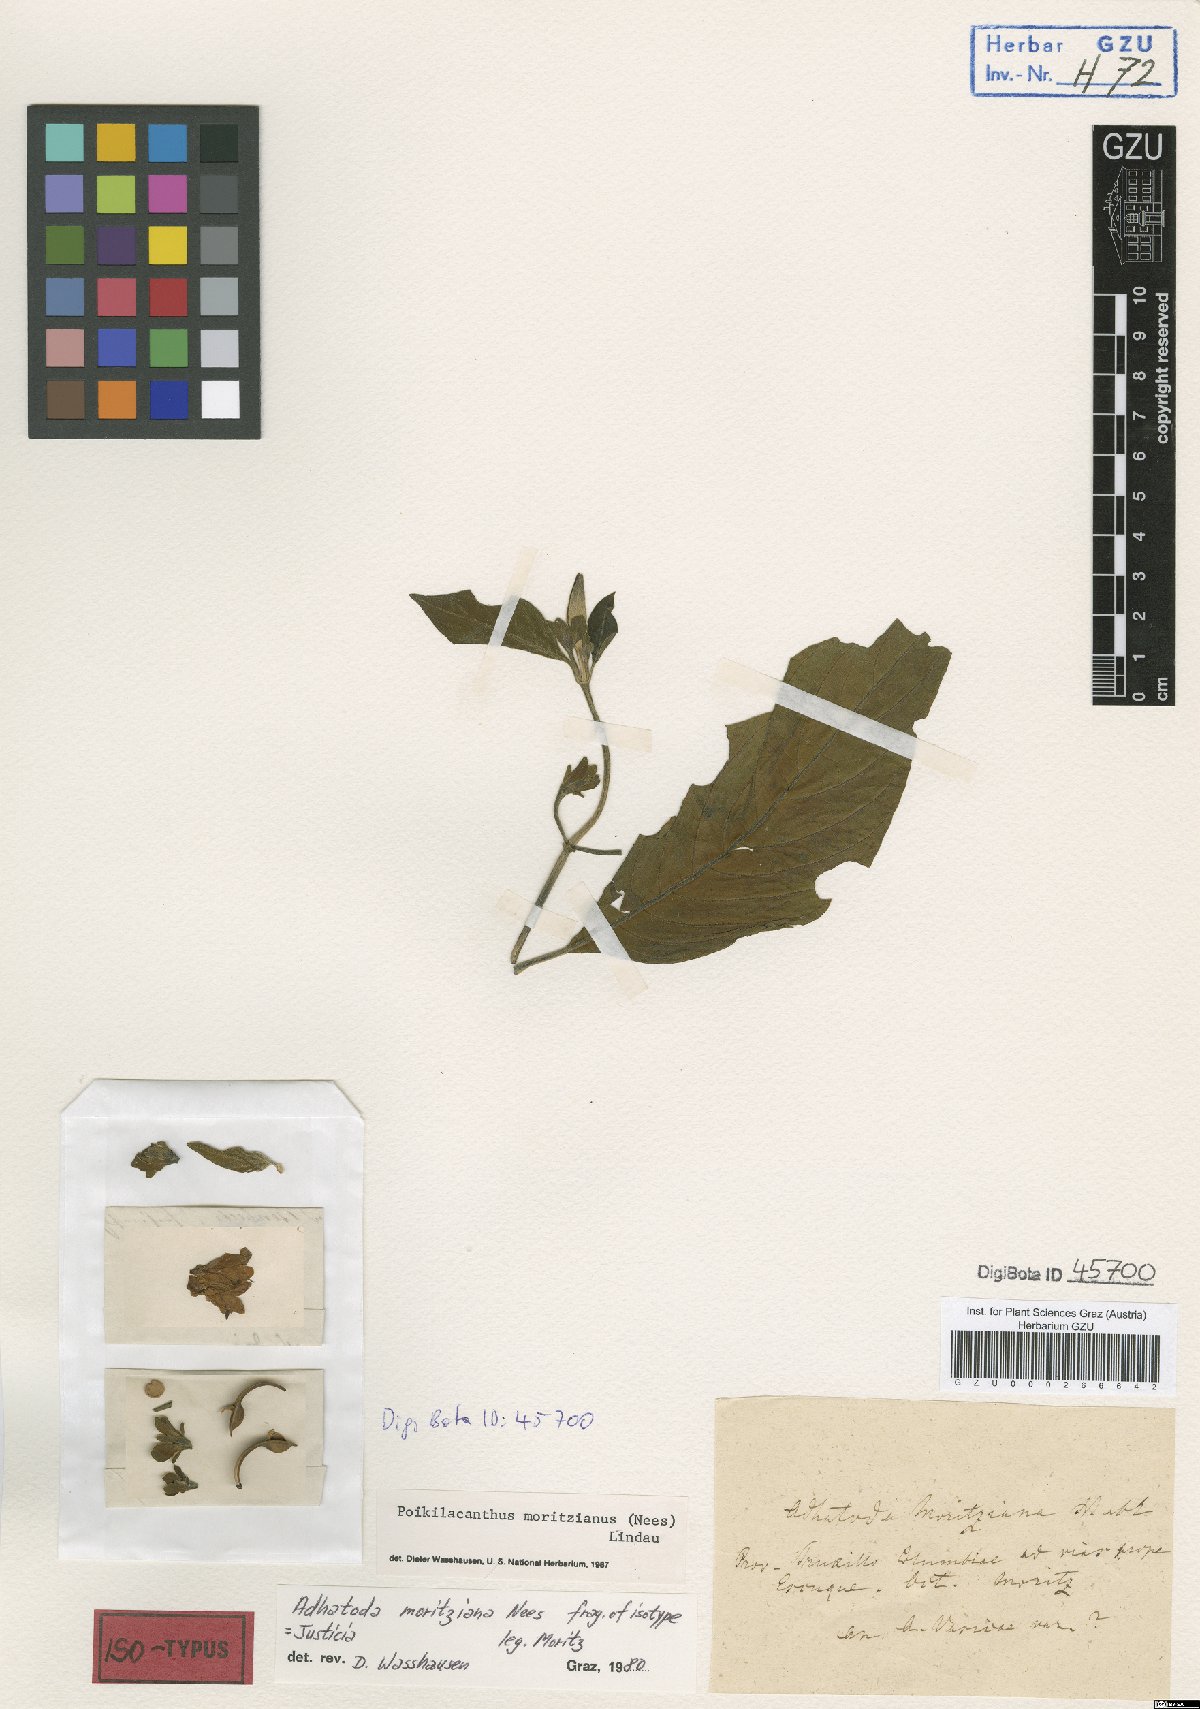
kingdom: Plantae
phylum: Tracheophyta
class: Magnoliopsida
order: Lamiales
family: Acanthaceae
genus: Poikilacanthus
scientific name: Poikilacanthus moritzianus
